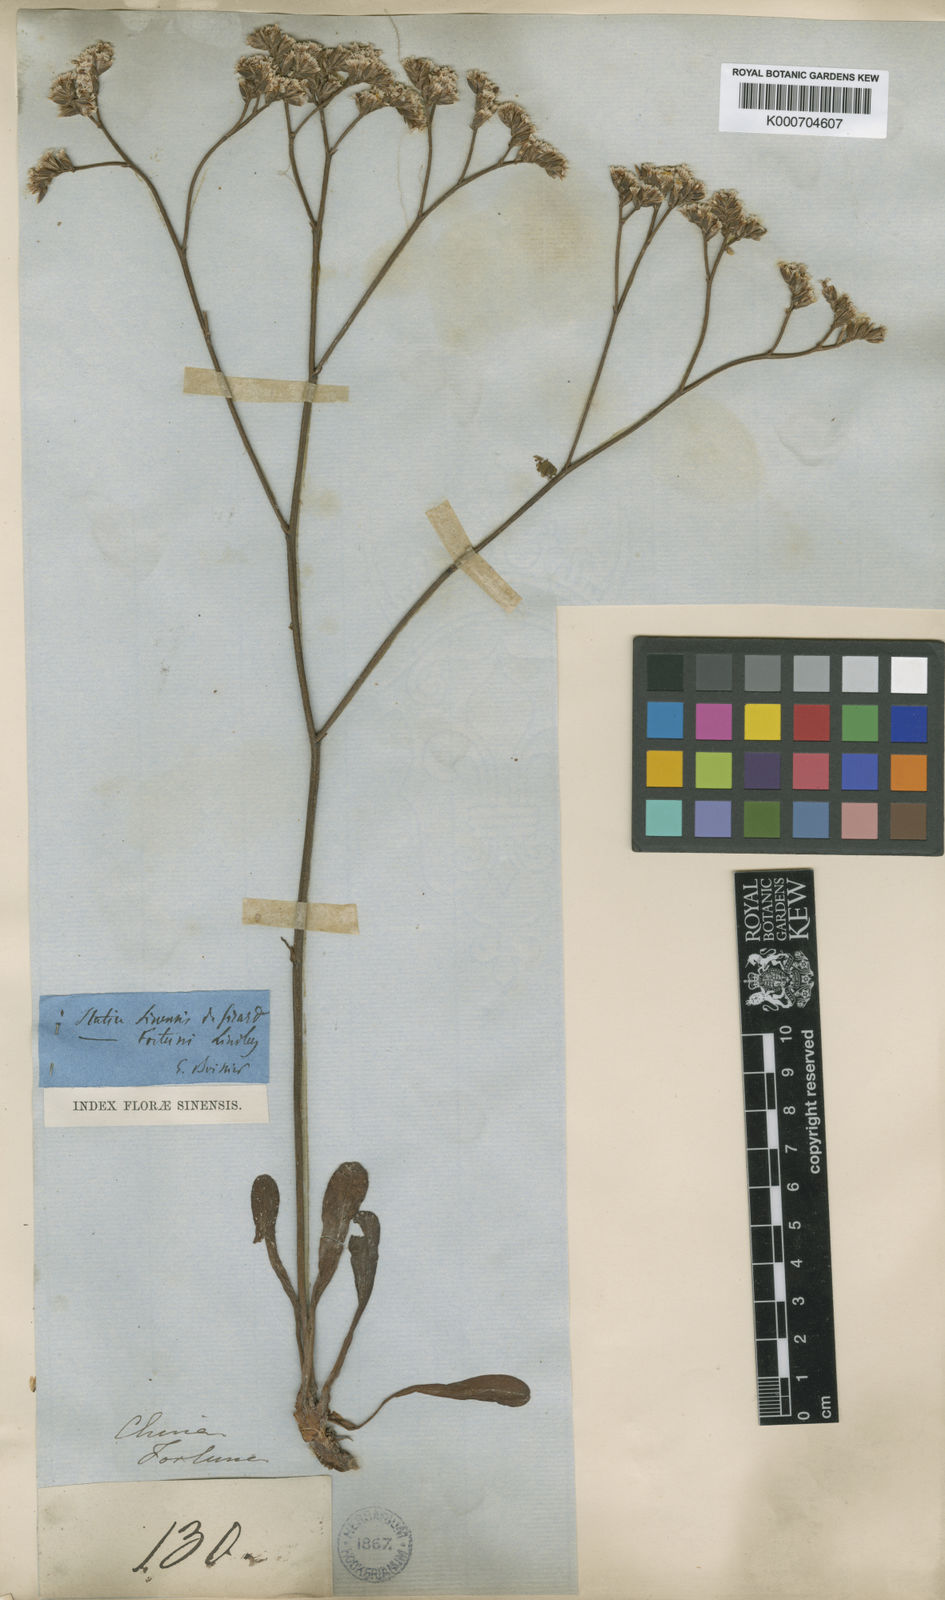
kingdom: Plantae
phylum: Tracheophyta
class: Magnoliopsida
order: Caryophyllales
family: Plumbaginaceae
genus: Limonium
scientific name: Limonium sinense
